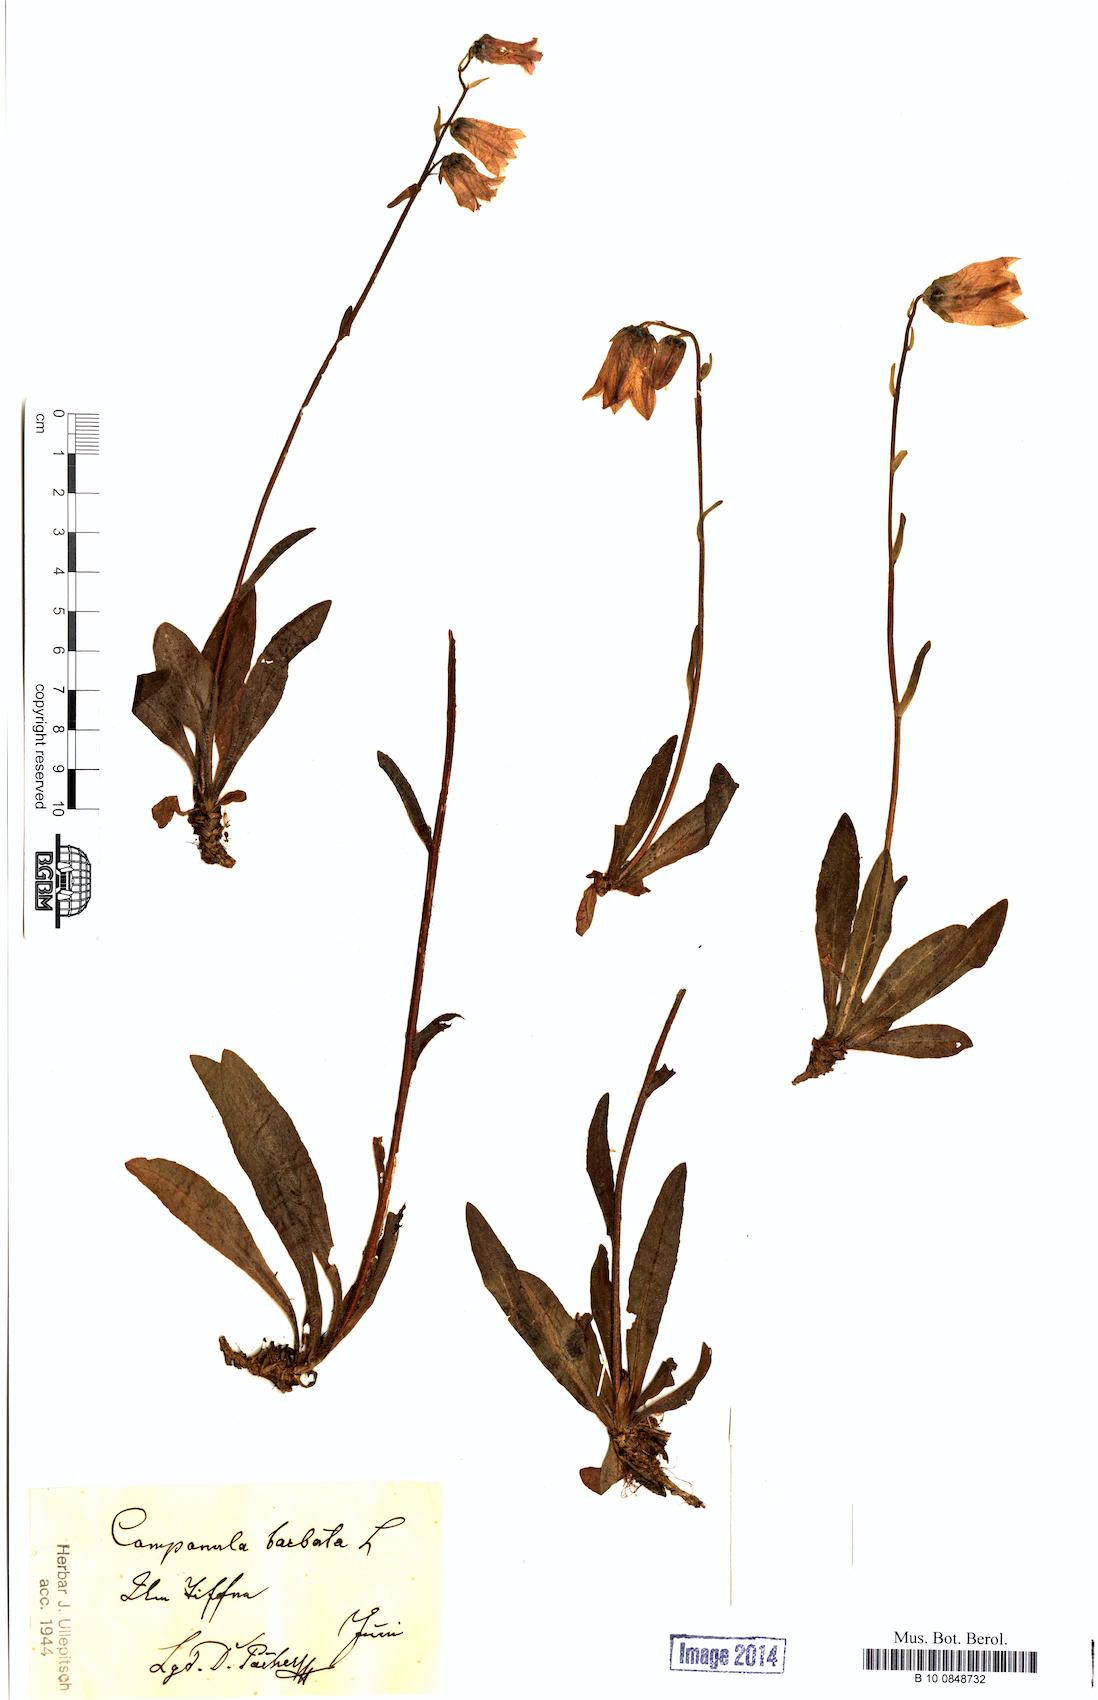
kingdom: Plantae
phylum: Tracheophyta
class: Magnoliopsida
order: Asterales
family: Campanulaceae
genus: Campanula
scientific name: Campanula barbata
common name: Bearded bellflower
